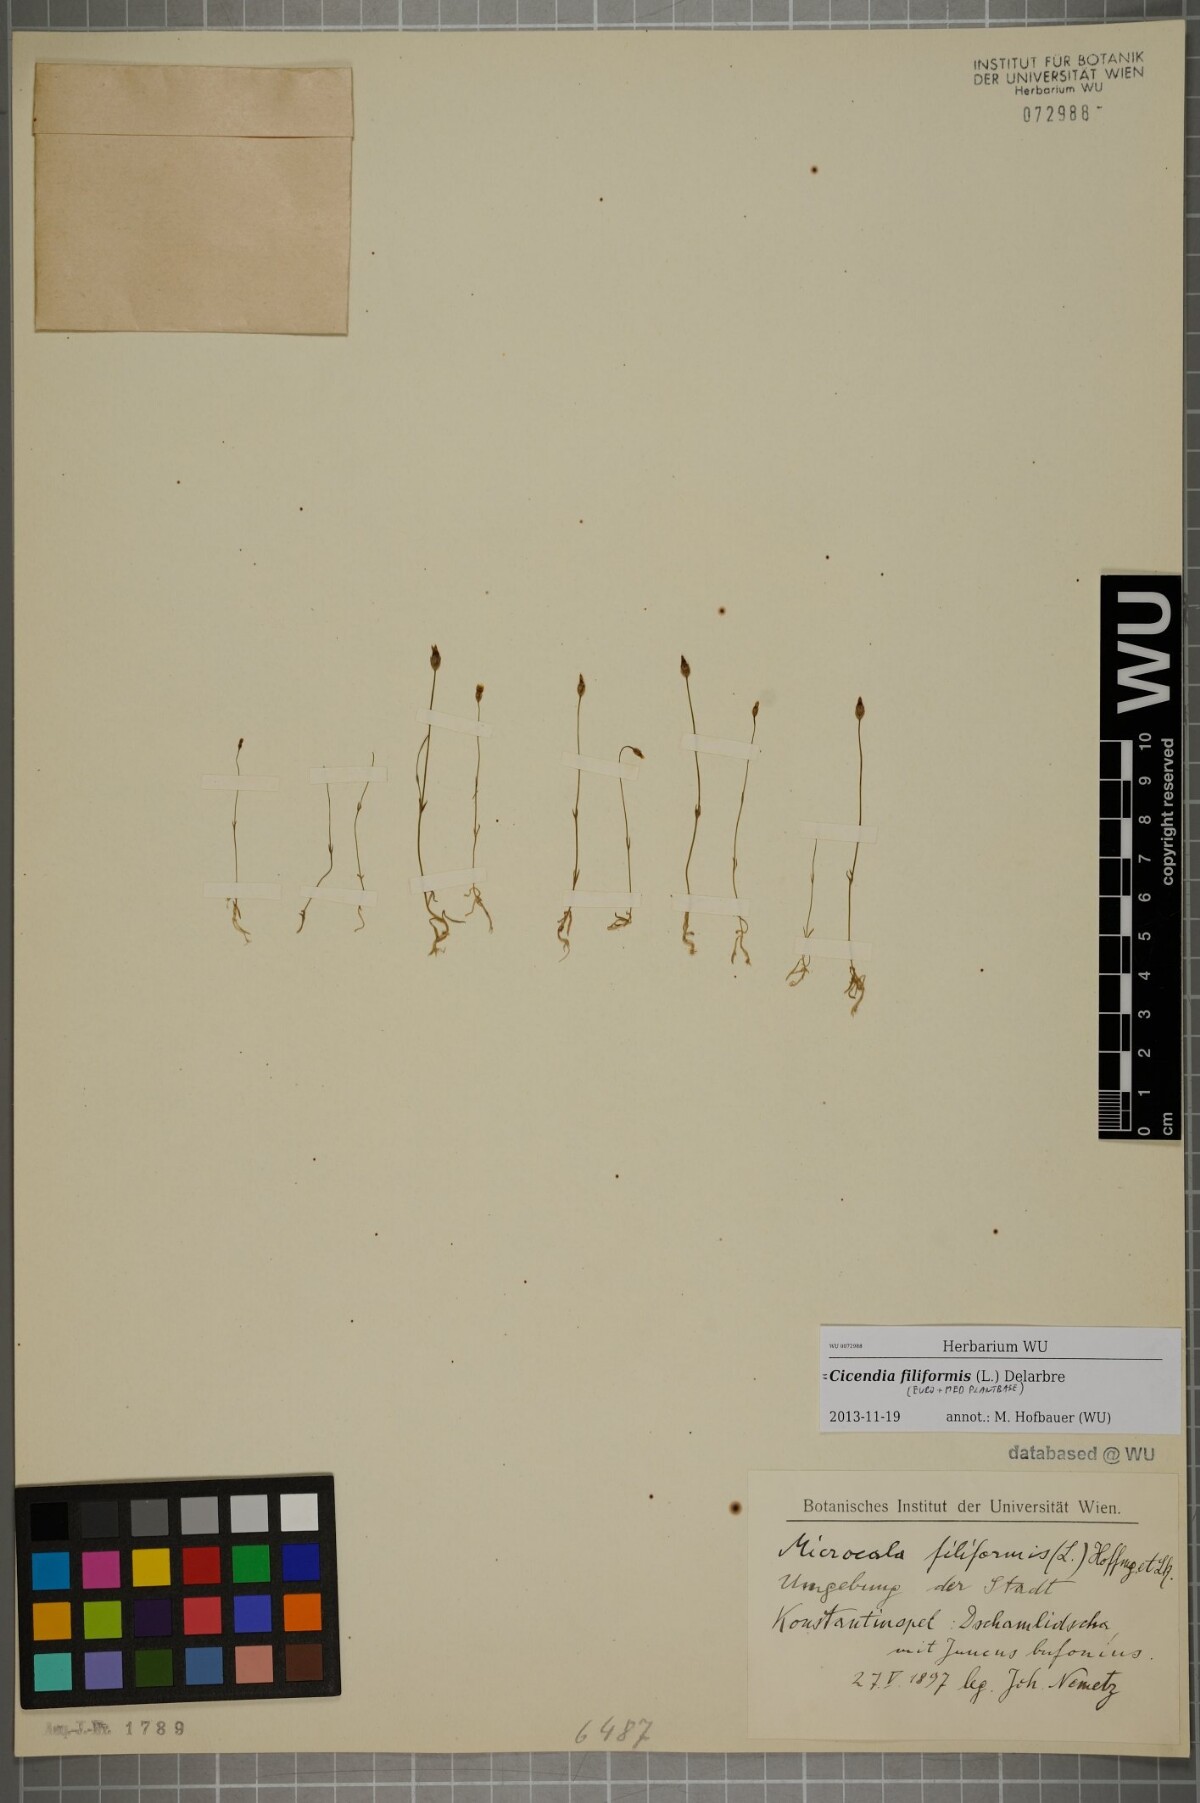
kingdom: Plantae
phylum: Tracheophyta
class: Magnoliopsida
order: Gentianales
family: Gentianaceae
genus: Cicendia
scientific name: Cicendia filiformis
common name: Yellow centaury
